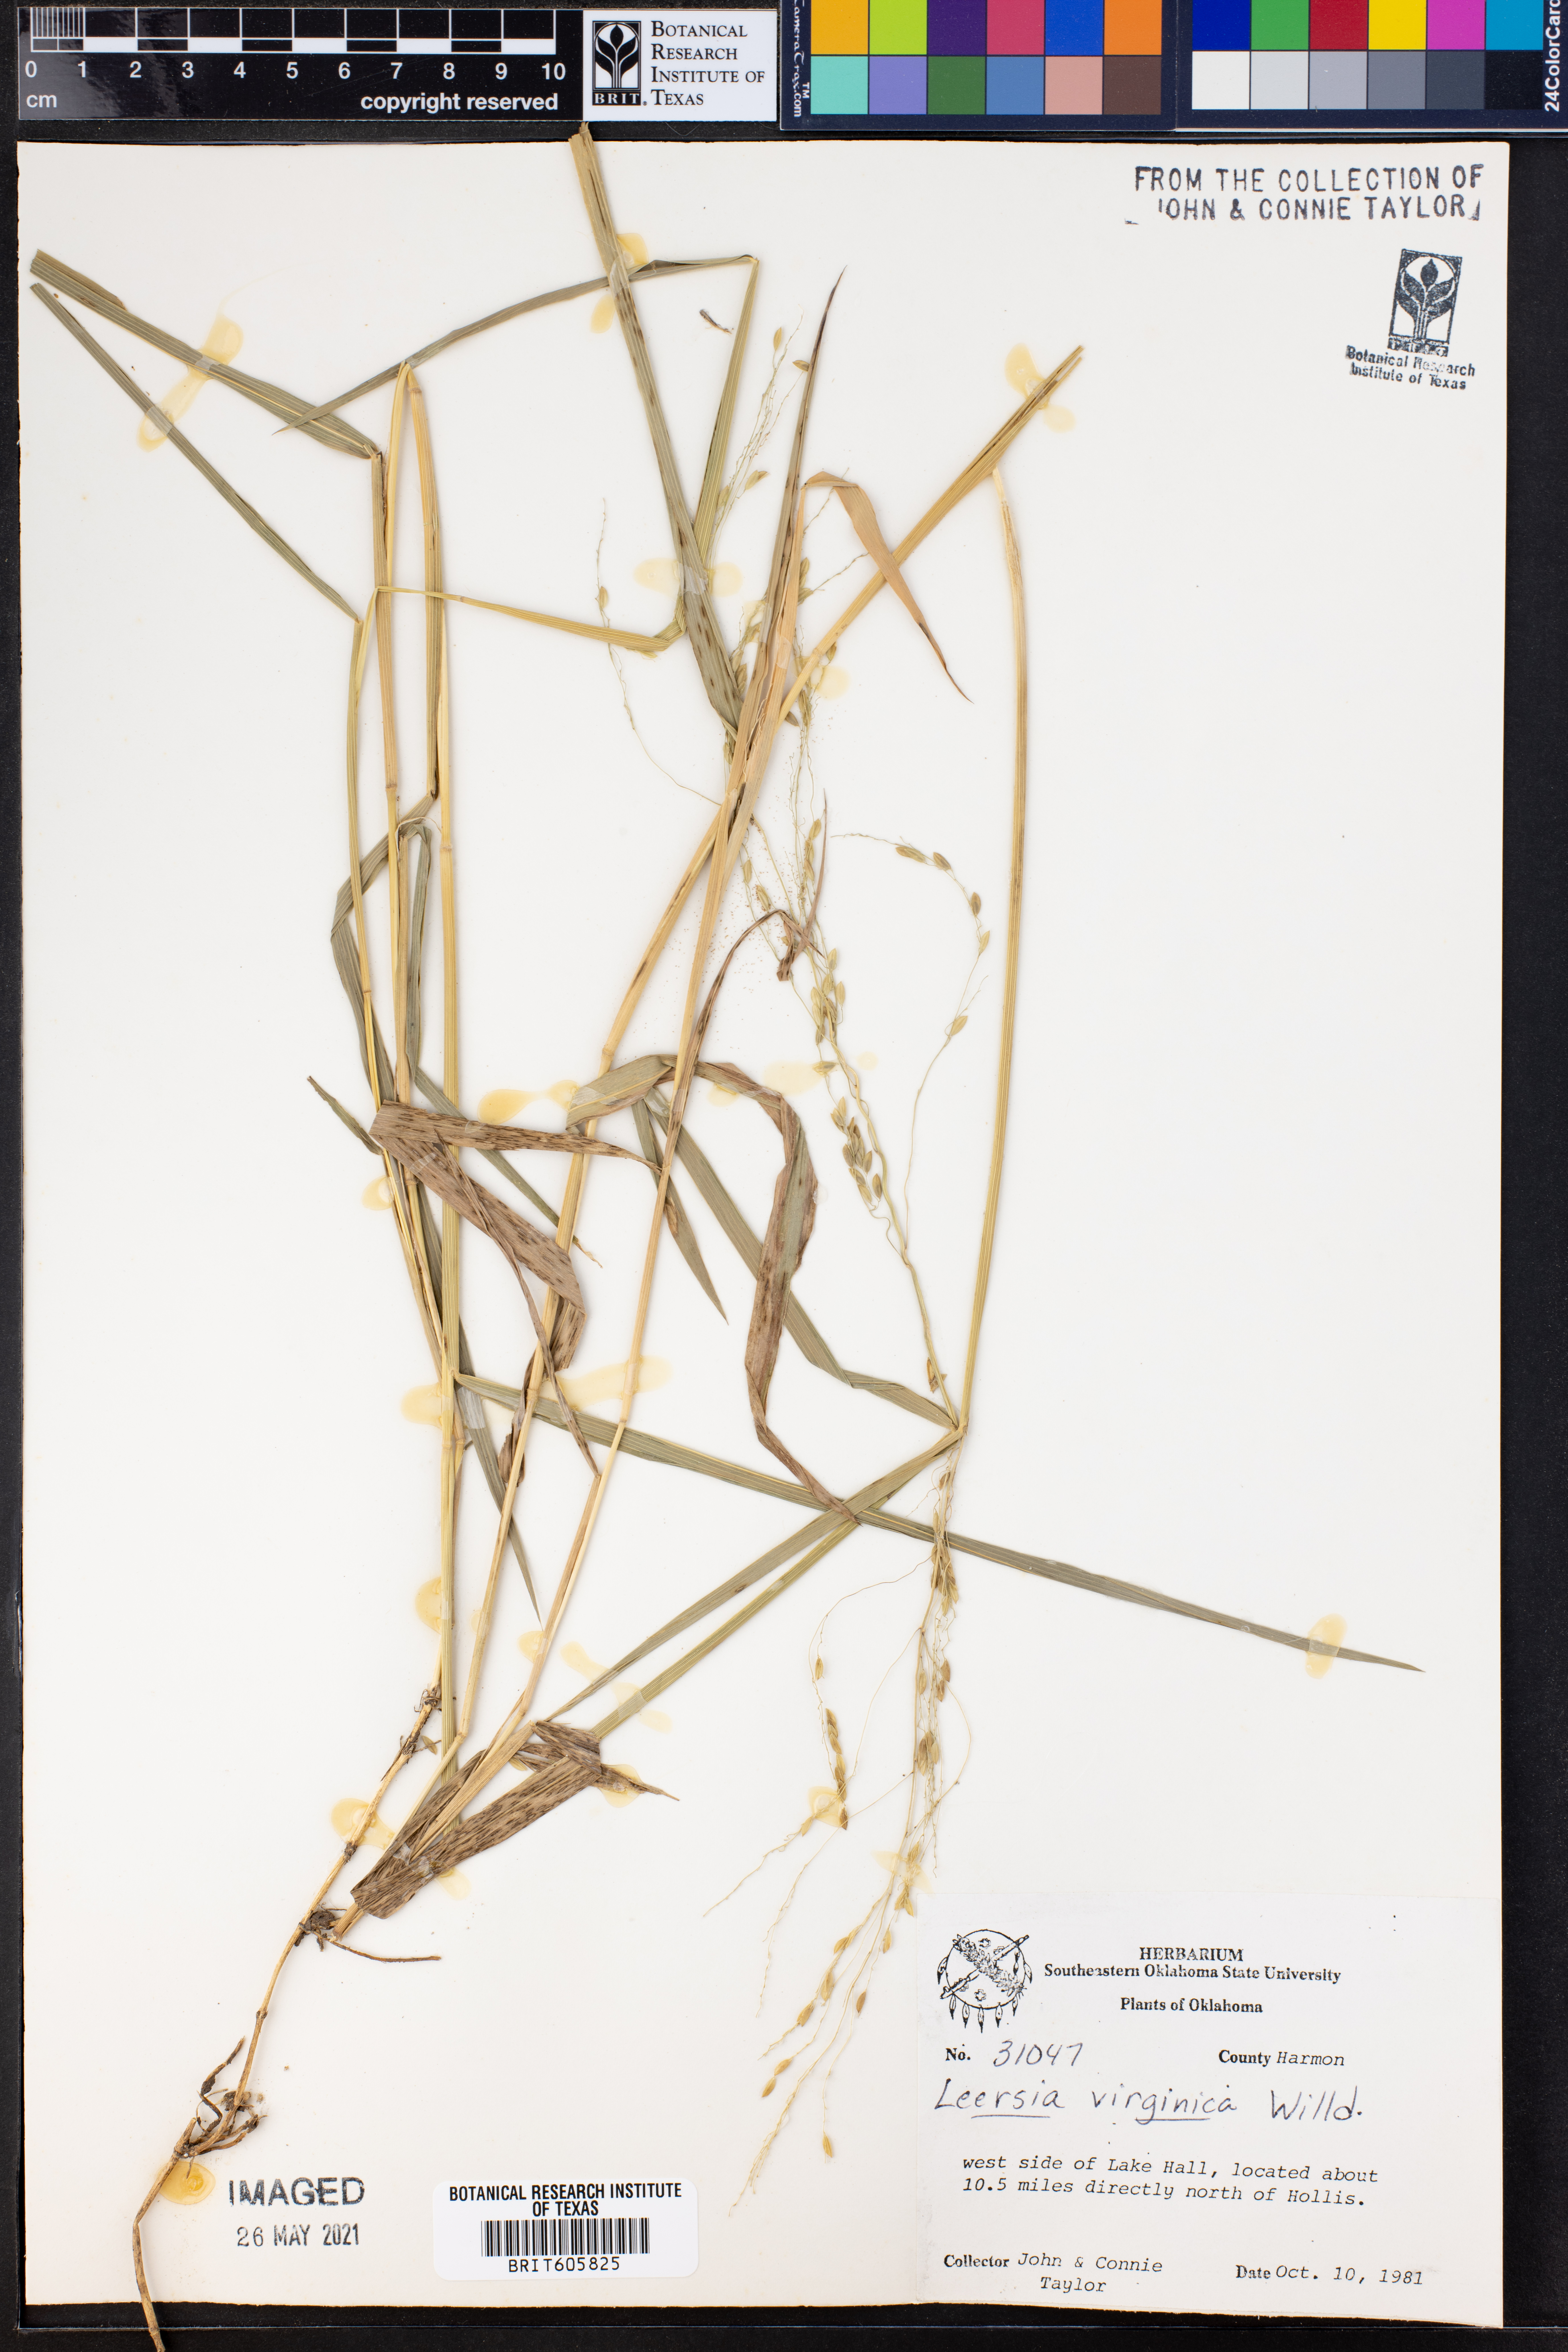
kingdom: Plantae
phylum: Tracheophyta
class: Liliopsida
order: Poales
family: Poaceae
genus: Leersia
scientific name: Leersia virginica
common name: White cutgrass
